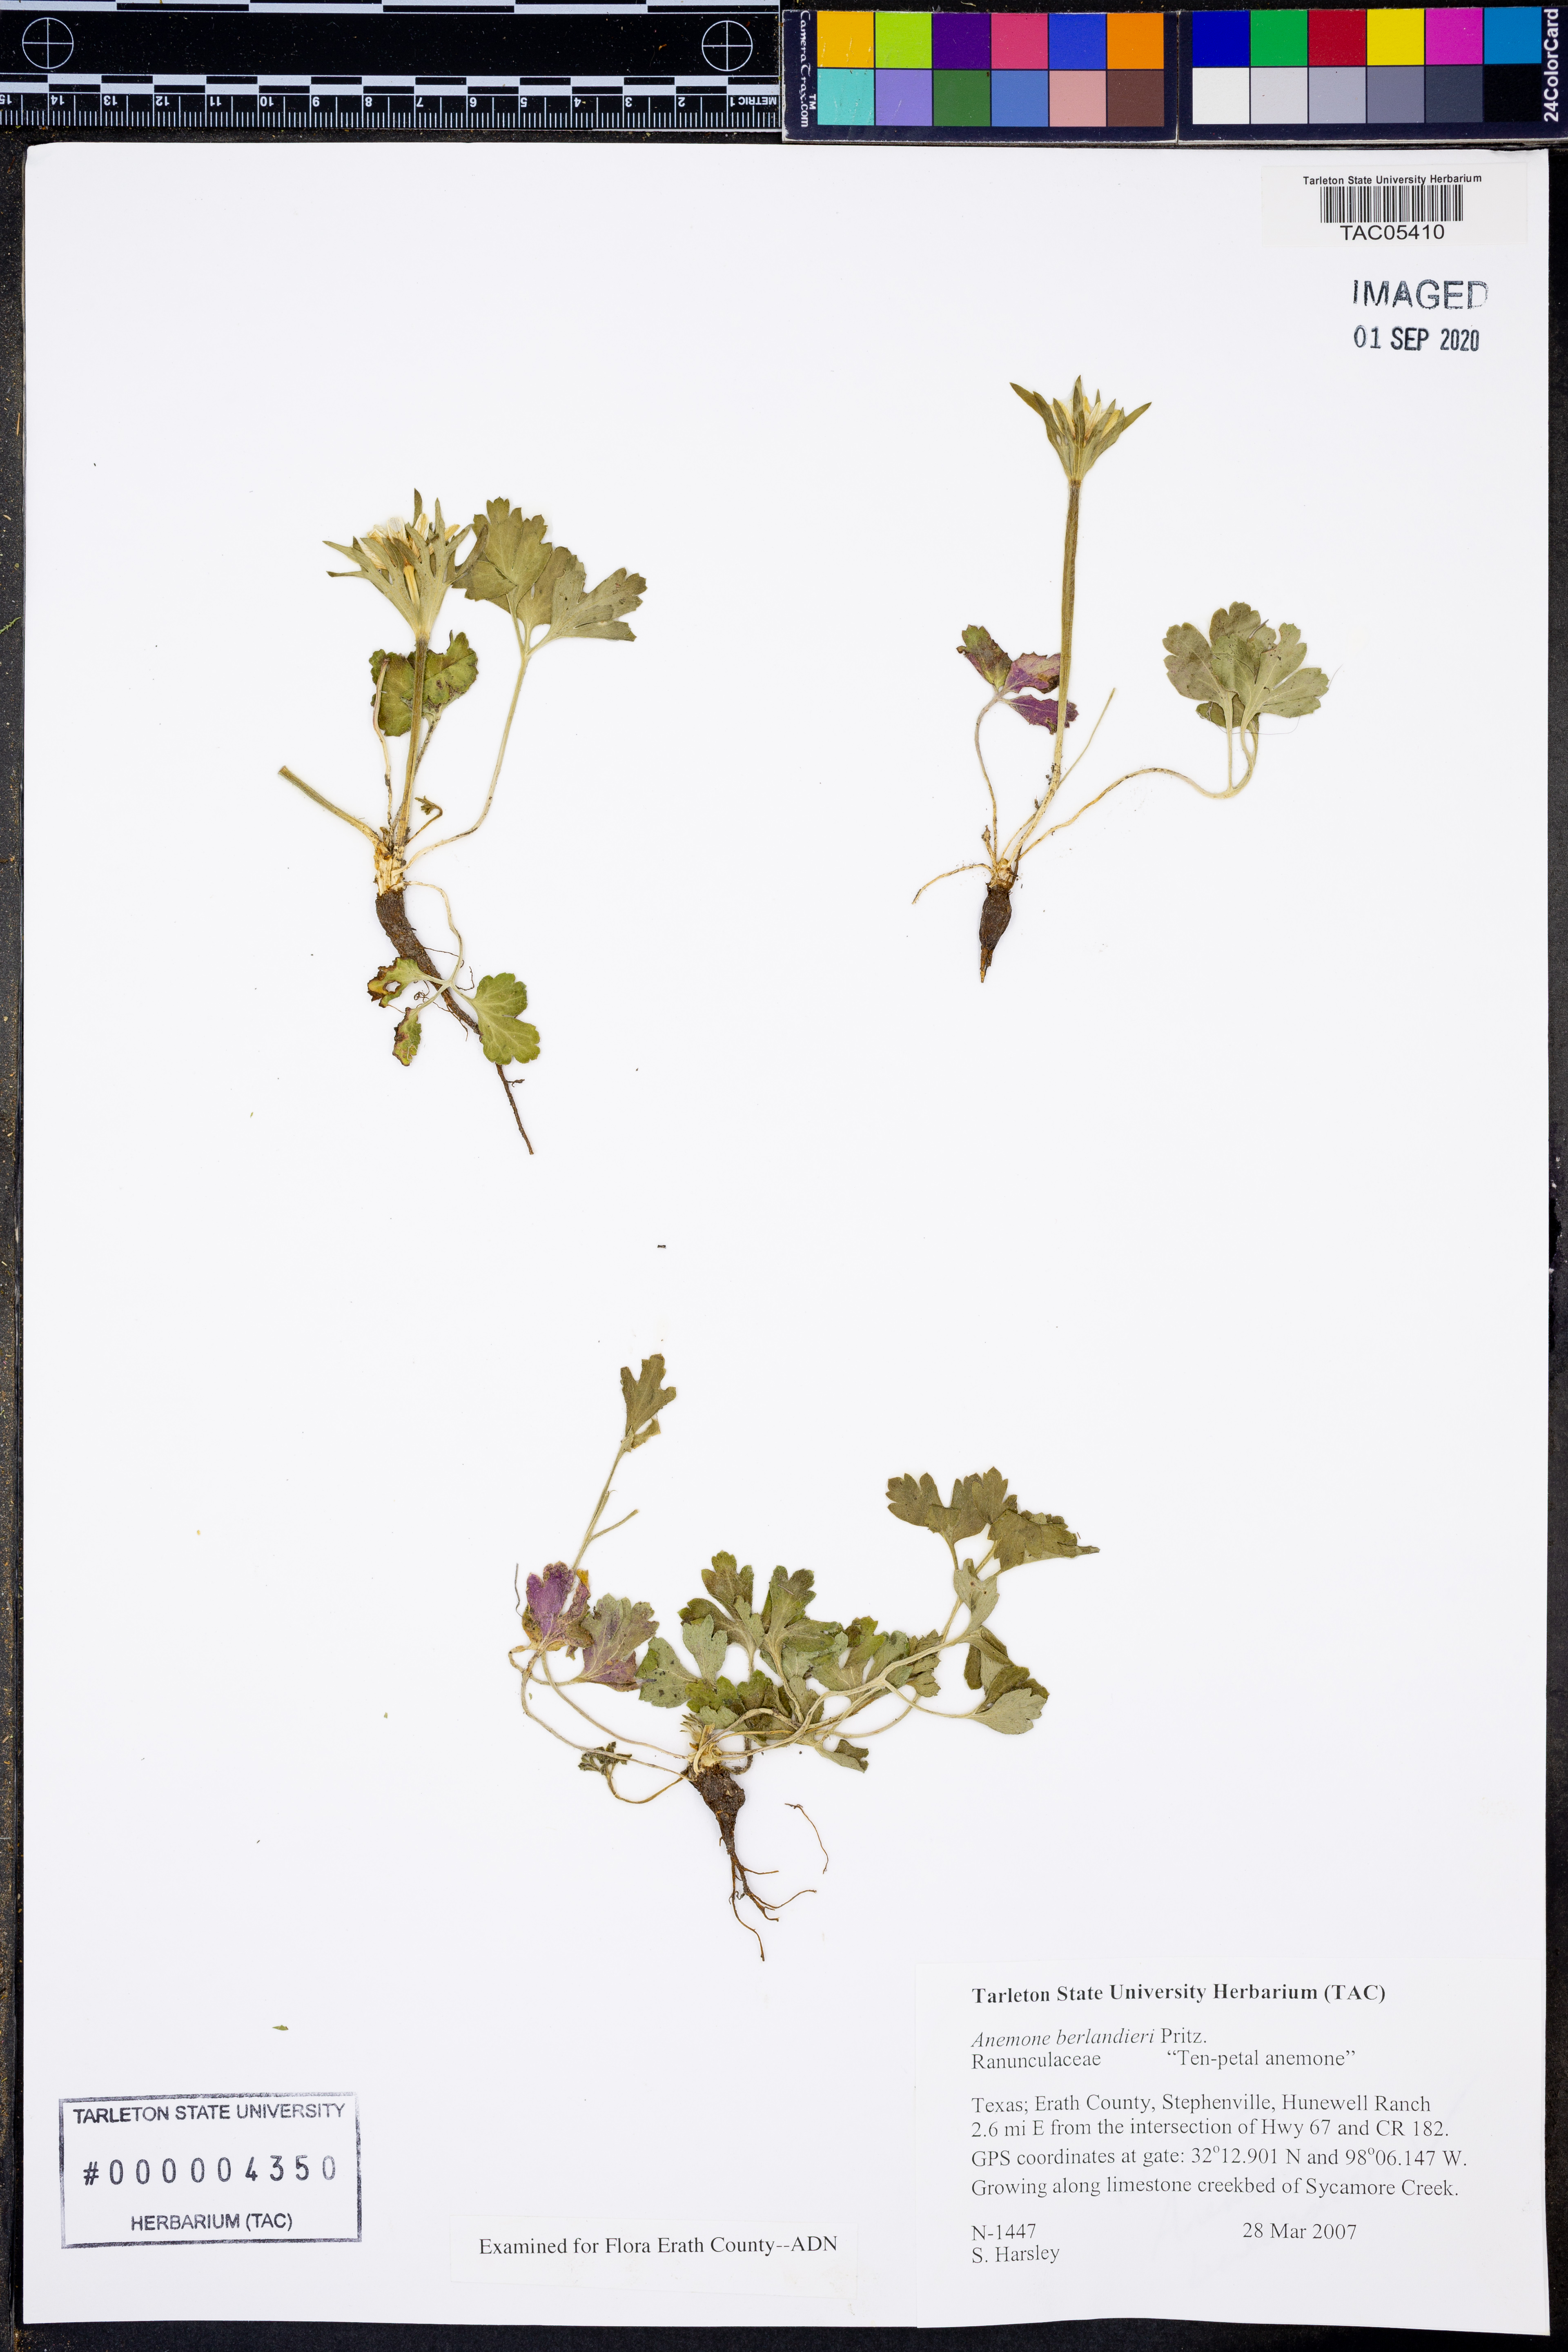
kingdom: Plantae
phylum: Tracheophyta
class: Magnoliopsida
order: Ranunculales
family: Ranunculaceae
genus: Anemone
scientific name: Anemone berlandieri
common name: Ten-petal anemone
